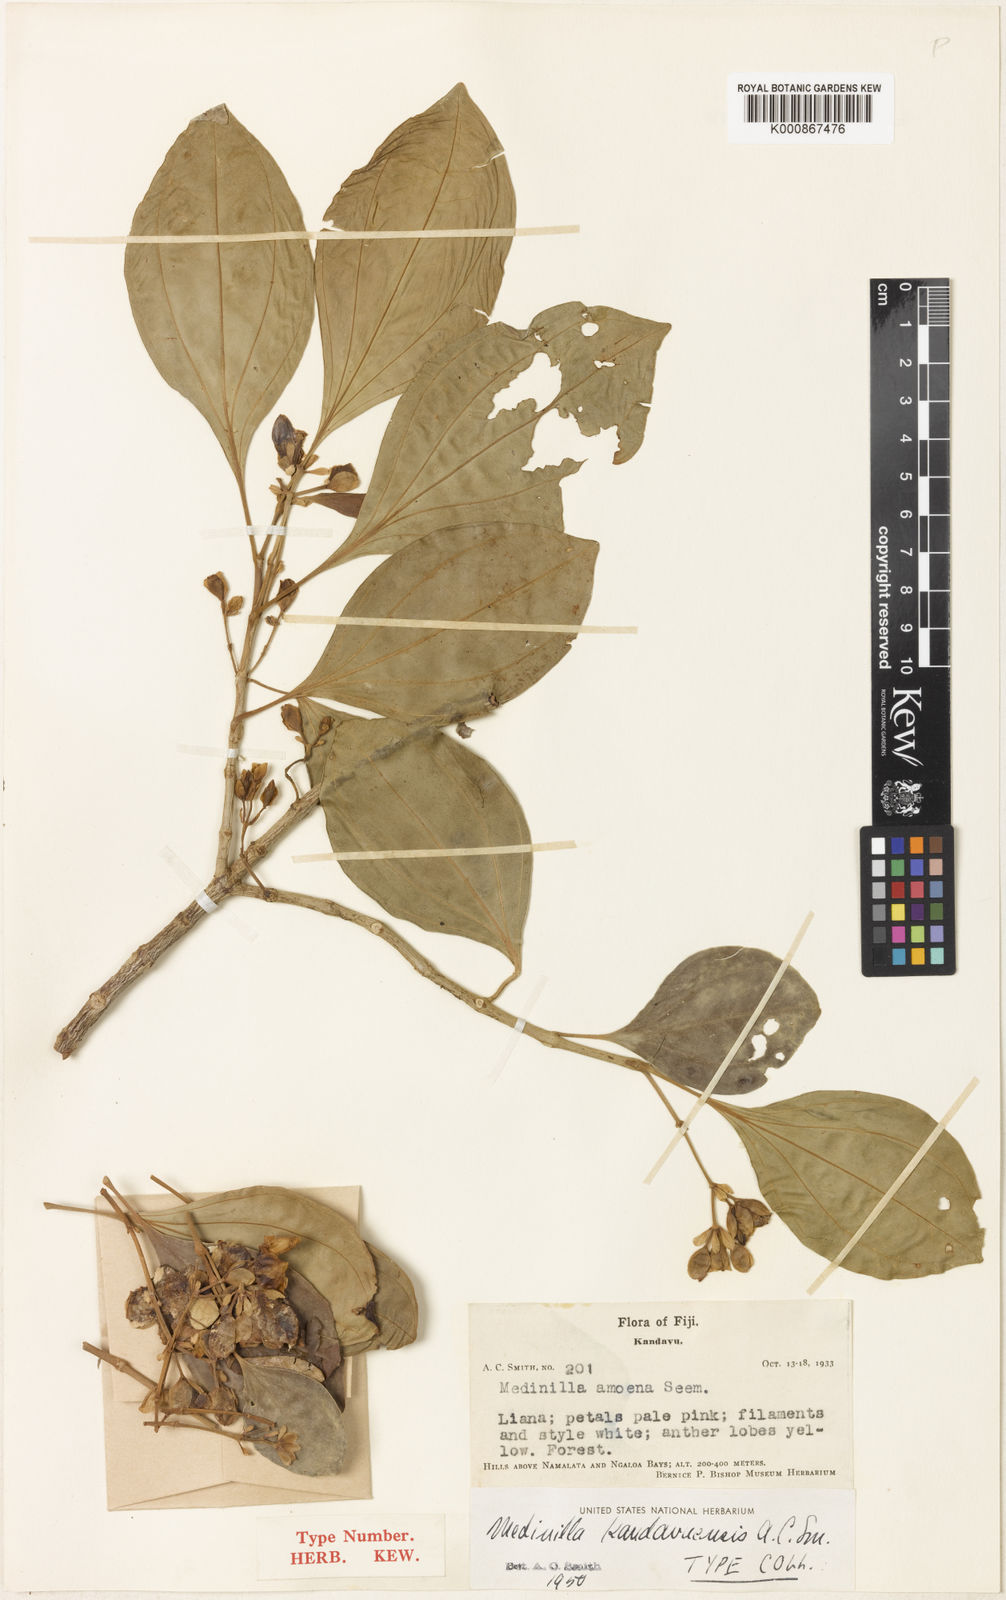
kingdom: Plantae
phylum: Tracheophyta
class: Magnoliopsida
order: Myrtales
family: Melastomataceae
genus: Medinilla
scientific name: Medinilla kandavuensis
